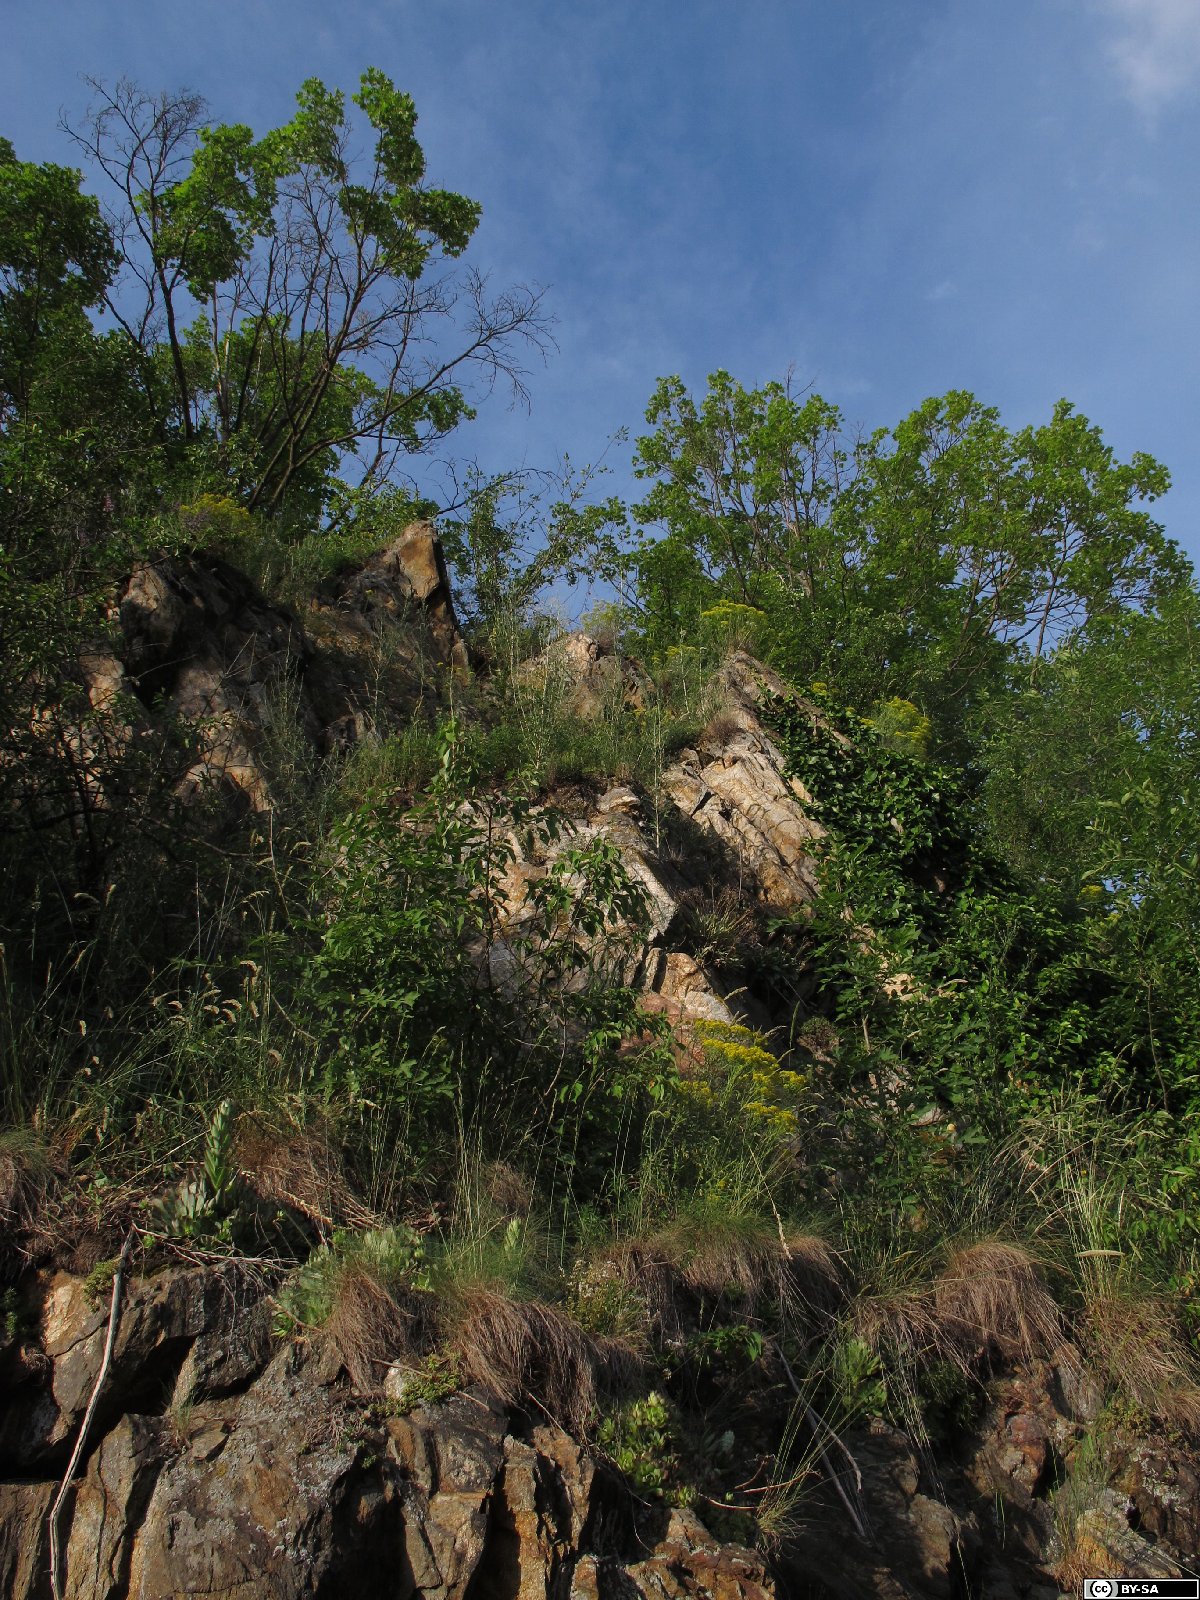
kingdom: Plantae
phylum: Tracheophyta
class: Magnoliopsida
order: Brassicales
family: Brassicaceae
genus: Odontarrhena
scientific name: Odontarrhena muralis
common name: Rock alyssum
